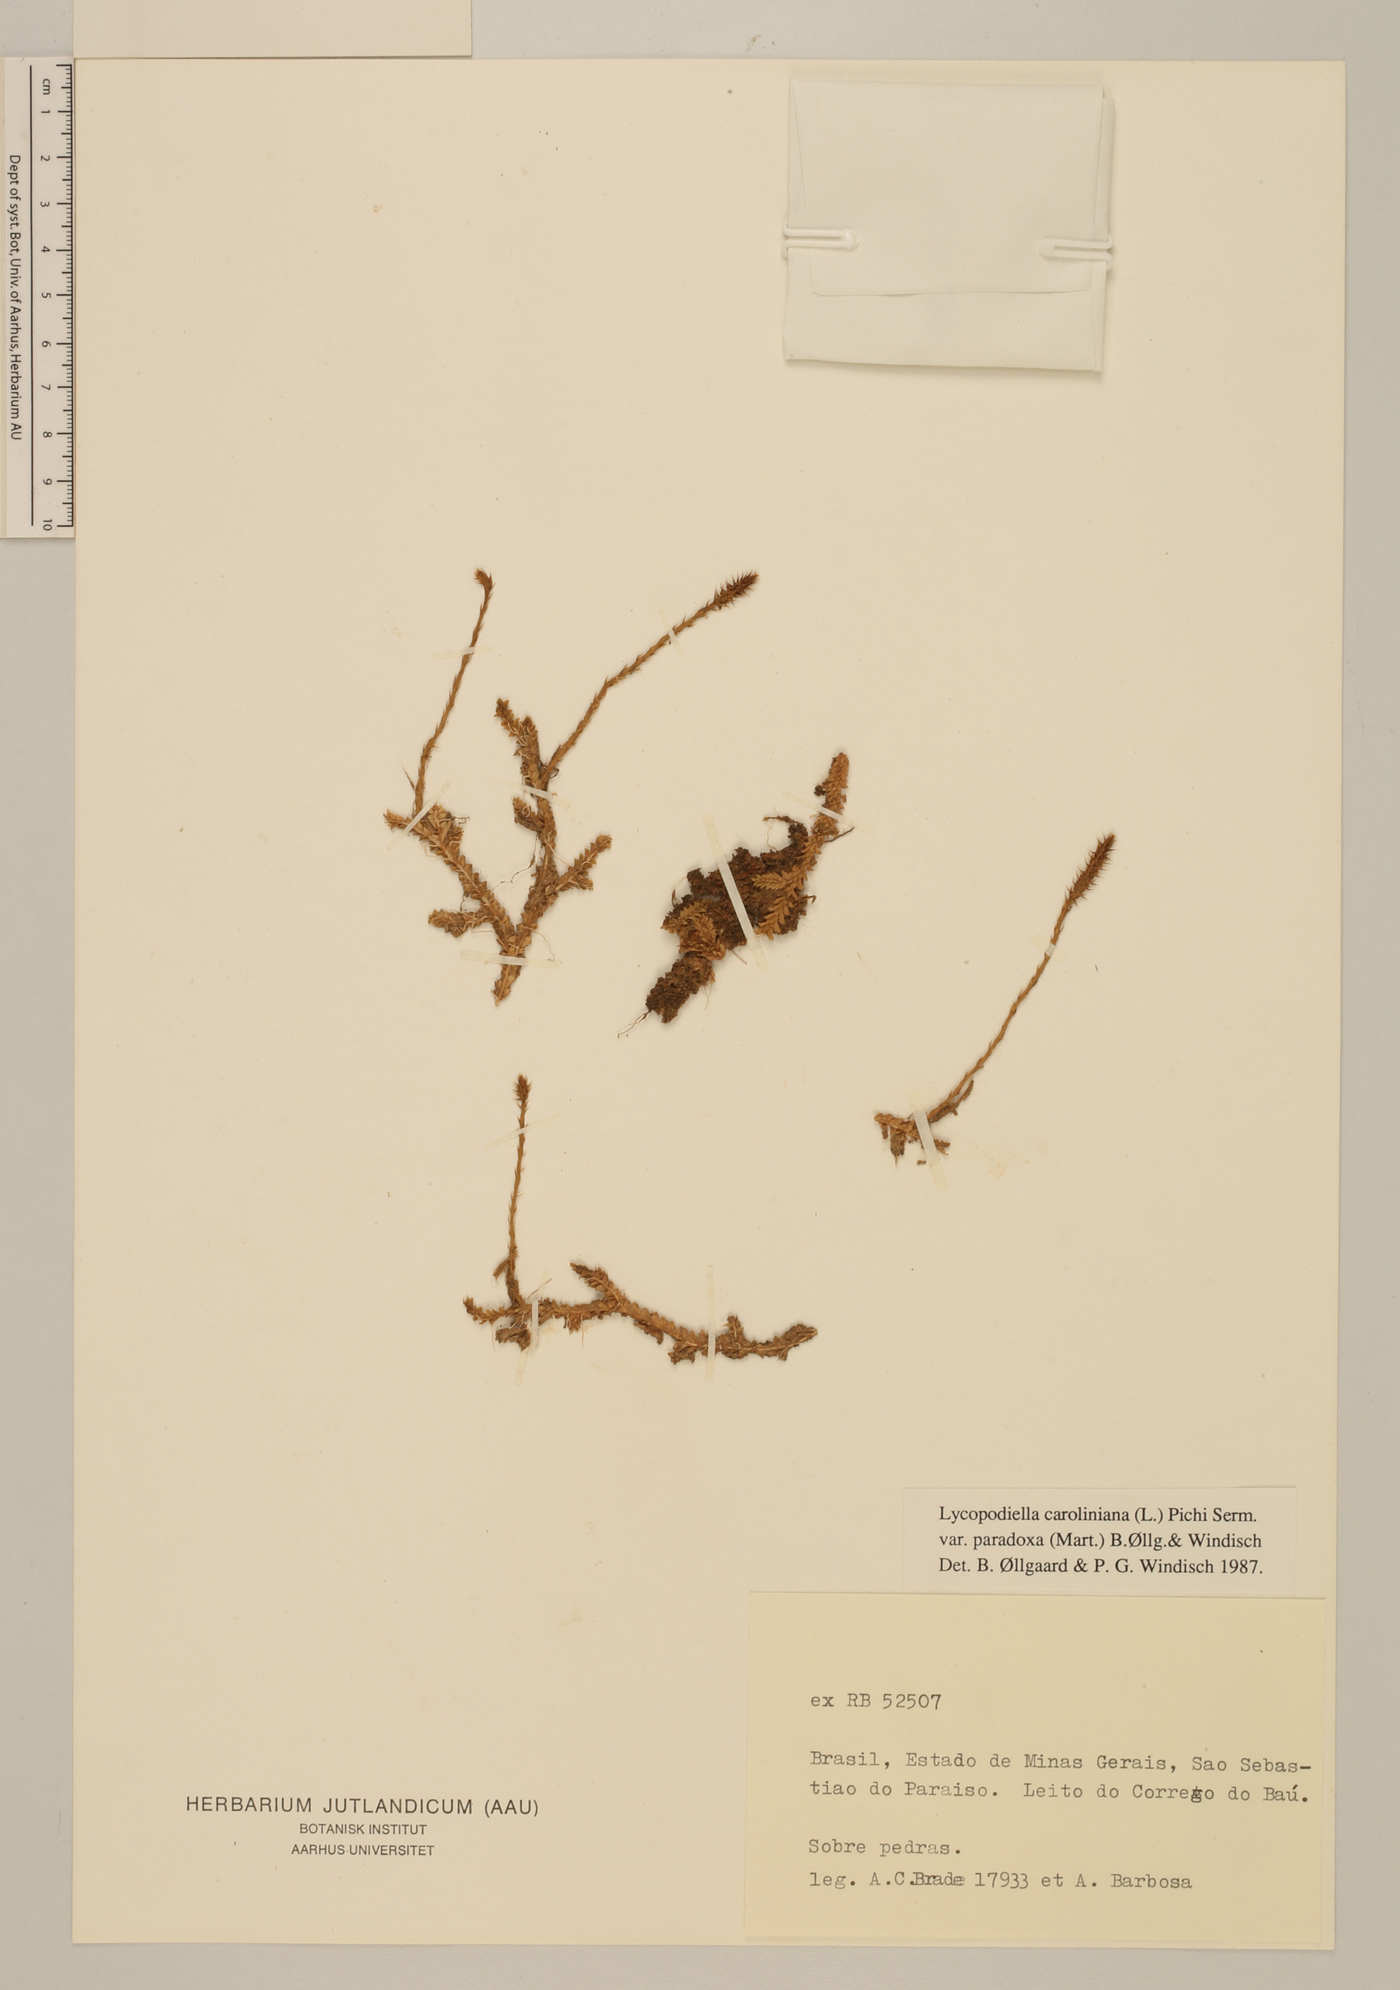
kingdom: Plantae
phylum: Tracheophyta
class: Lycopodiopsida
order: Lycopodiales
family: Lycopodiaceae
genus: Pseudolycopodiella
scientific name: Pseudolycopodiella paradoxa
